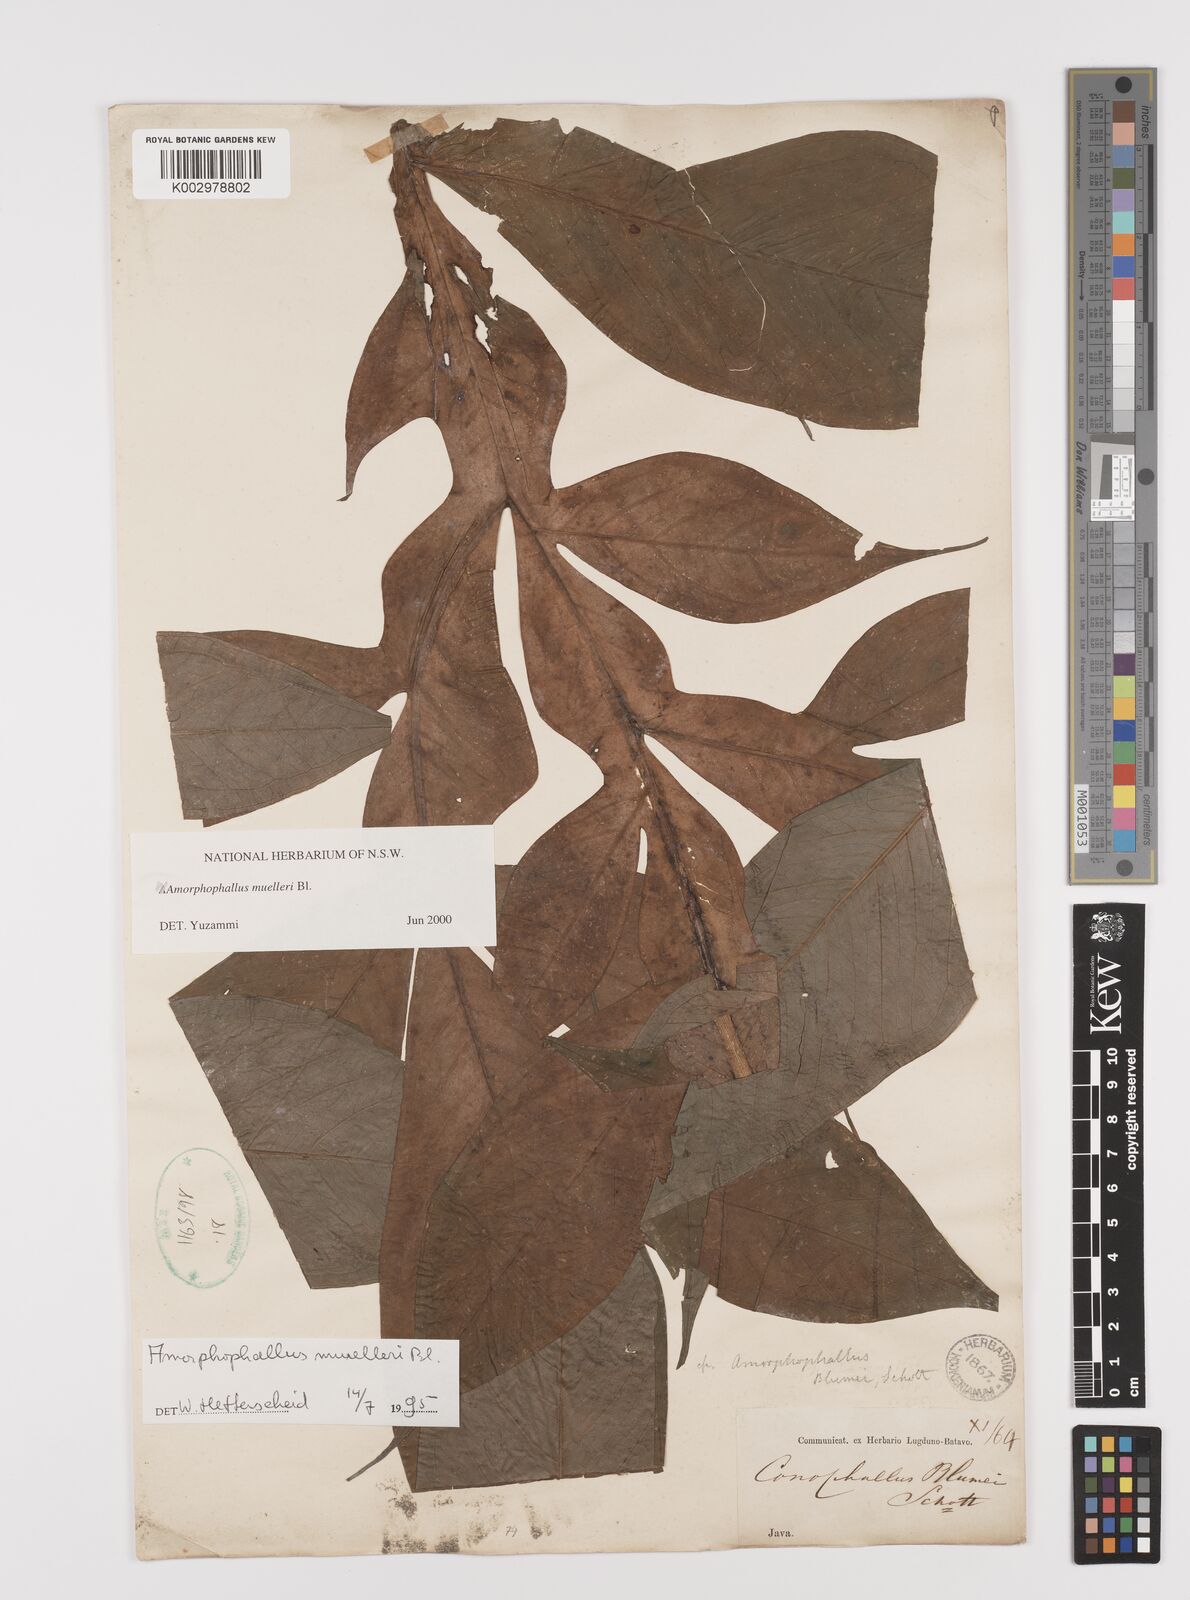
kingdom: Plantae
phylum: Tracheophyta
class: Liliopsida
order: Alismatales
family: Araceae
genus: Amorphophallus
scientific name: Amorphophallus muelleri
